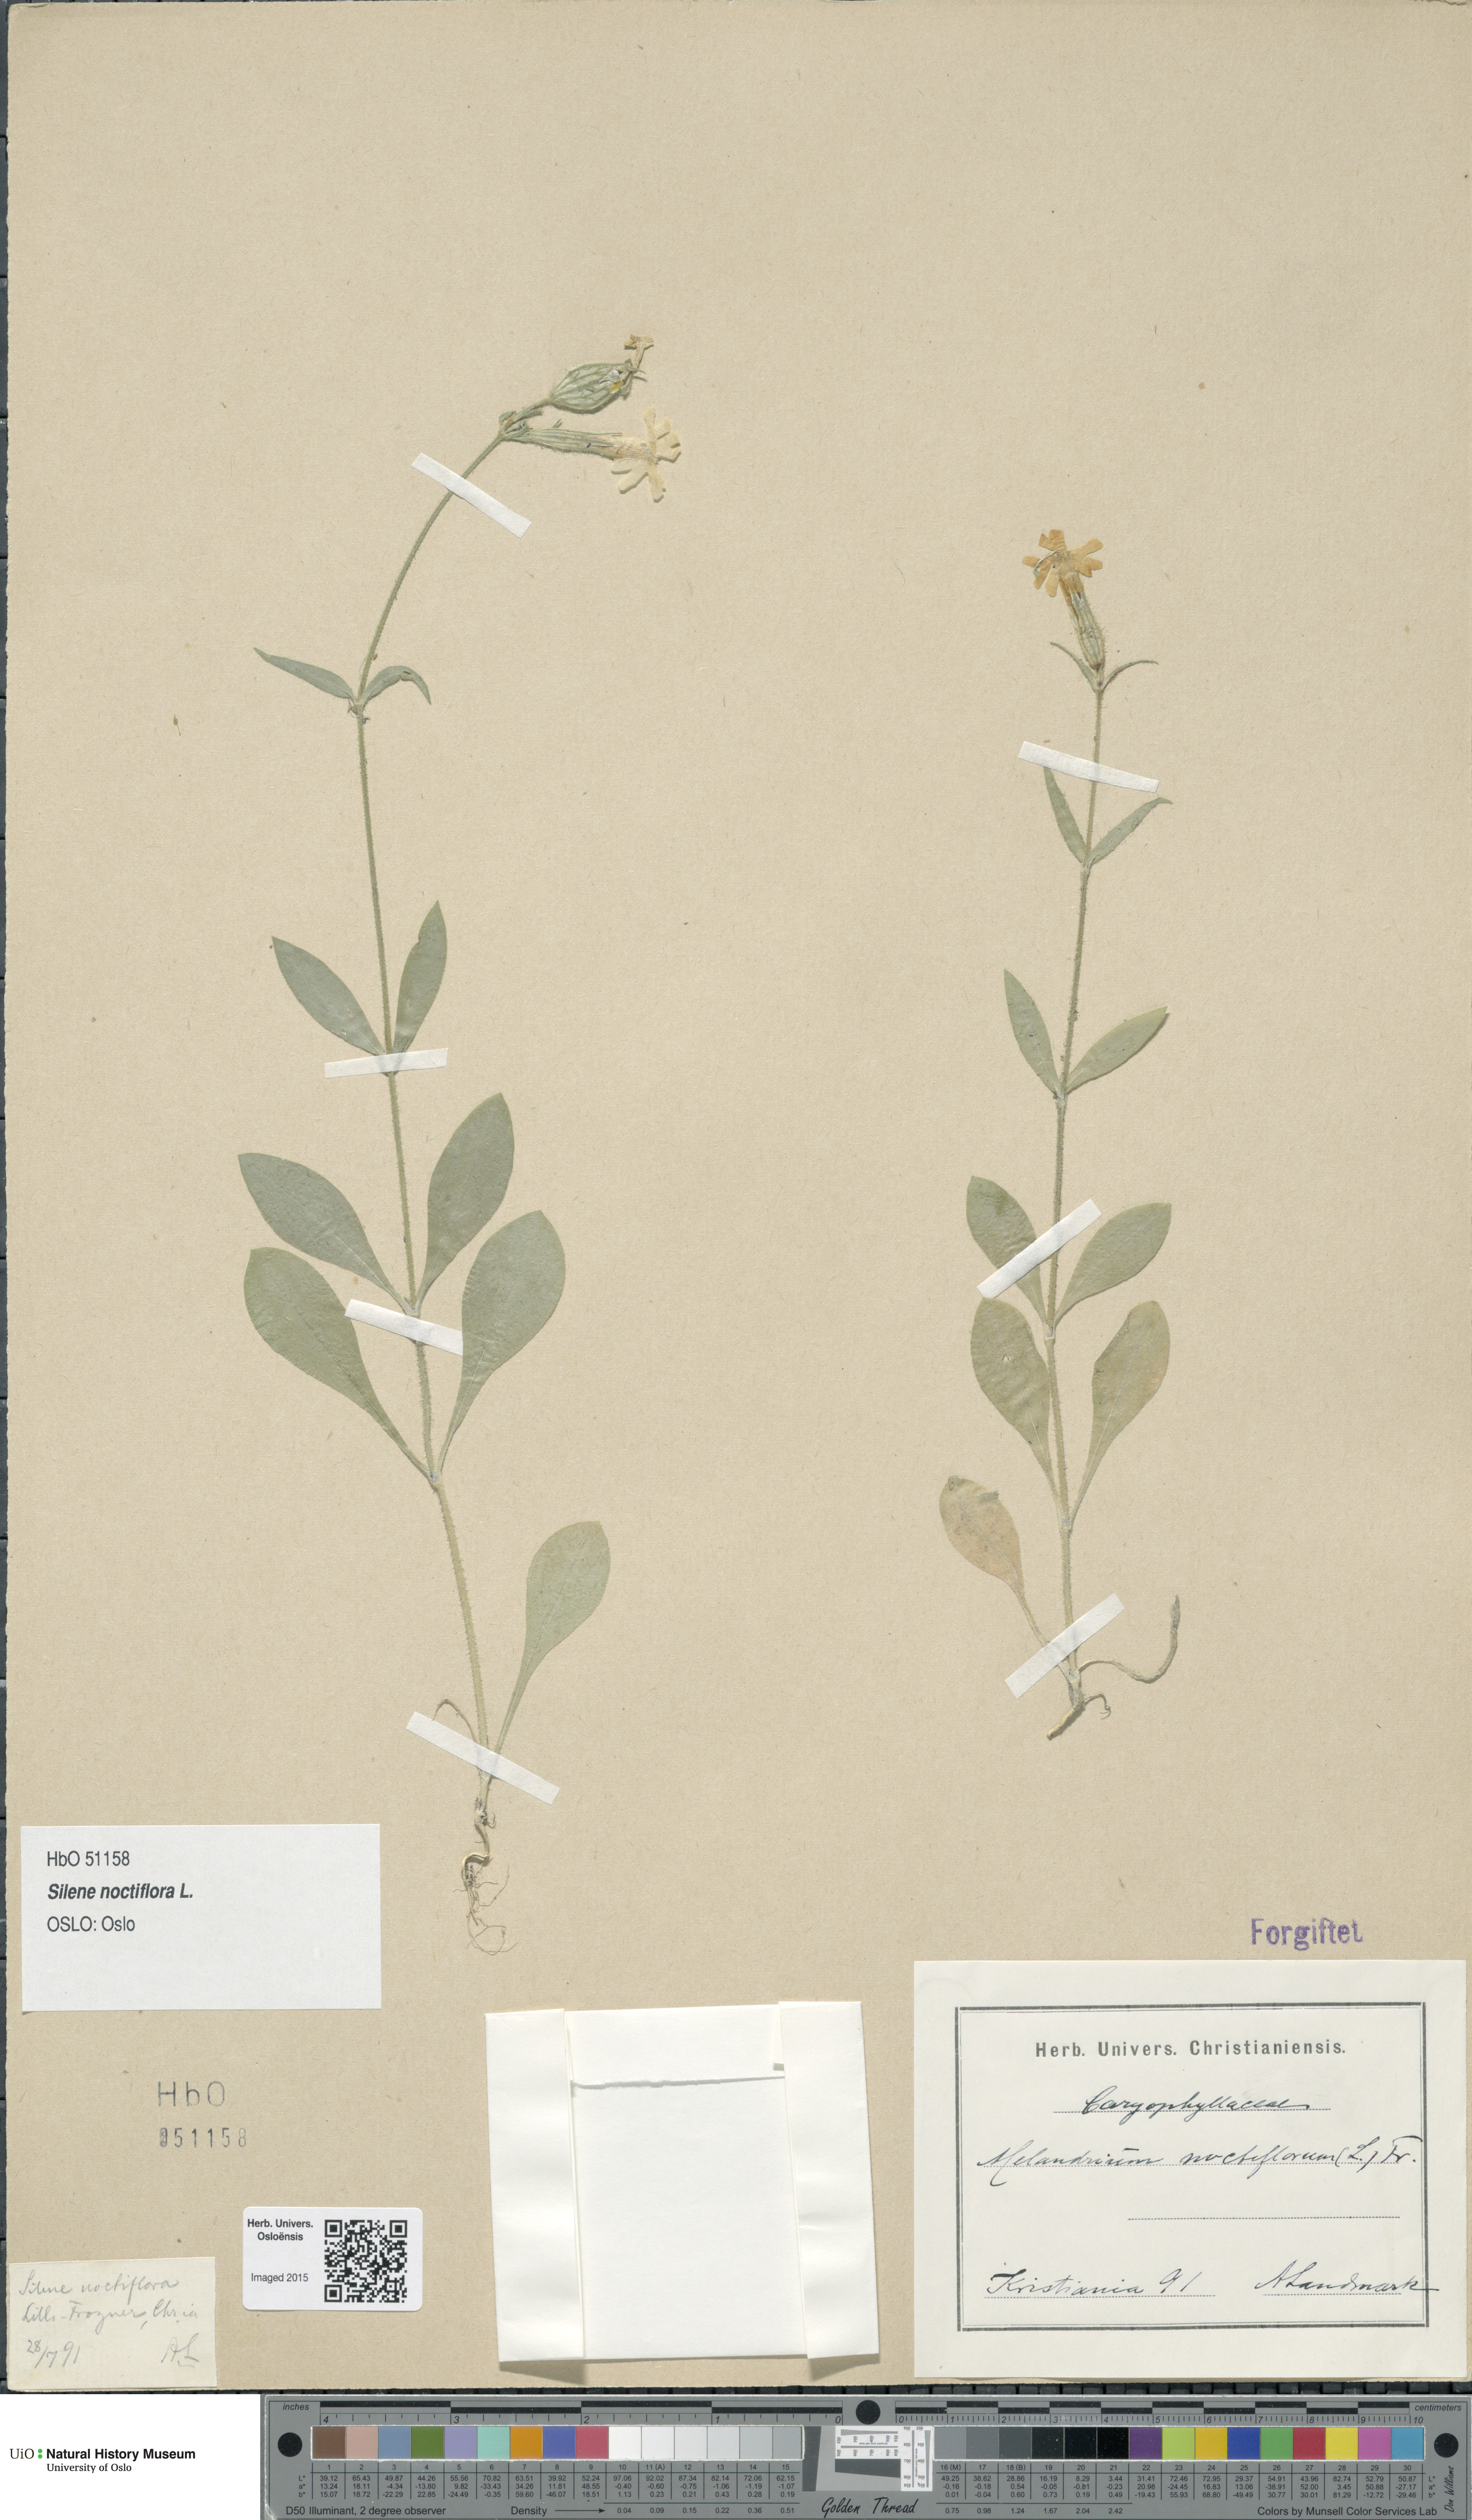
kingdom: Plantae
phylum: Tracheophyta
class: Magnoliopsida
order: Caryophyllales
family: Caryophyllaceae
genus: Silene
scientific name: Silene noctiflora
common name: Night-flowering catchfly
